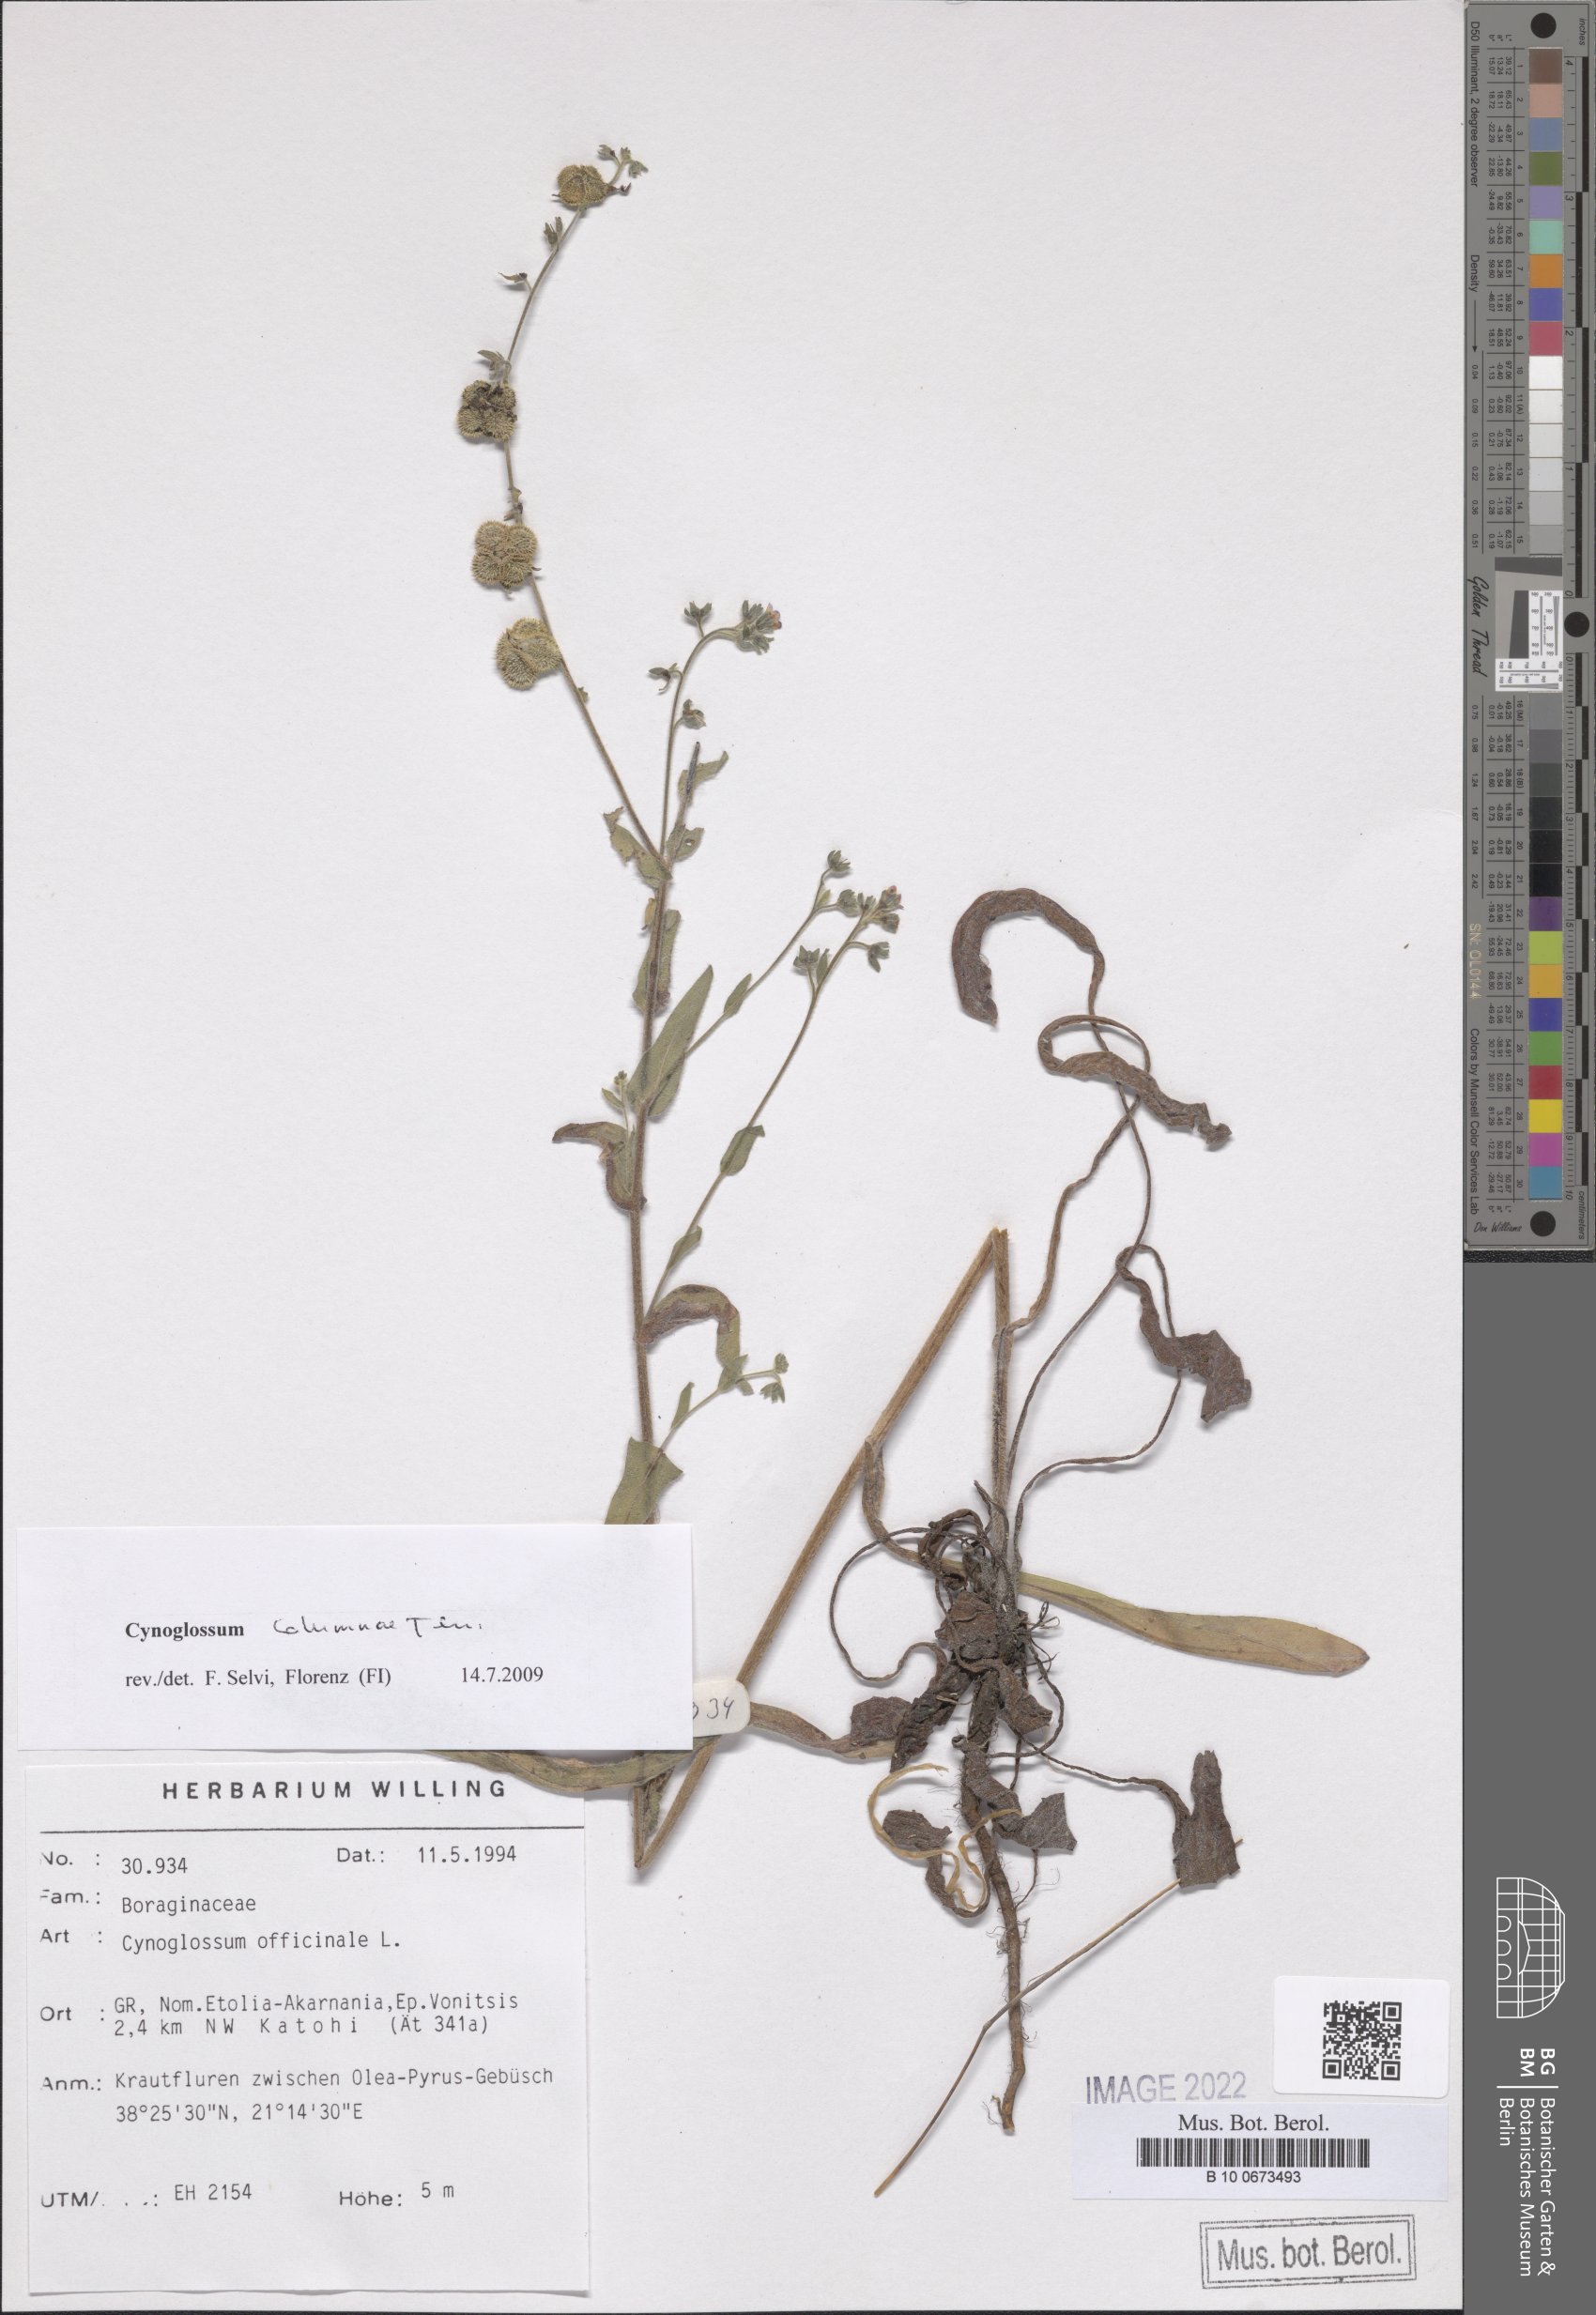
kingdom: Plantae
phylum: Tracheophyta
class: Magnoliopsida
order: Boraginales
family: Boraginaceae
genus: Rindera
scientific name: Rindera columnae
